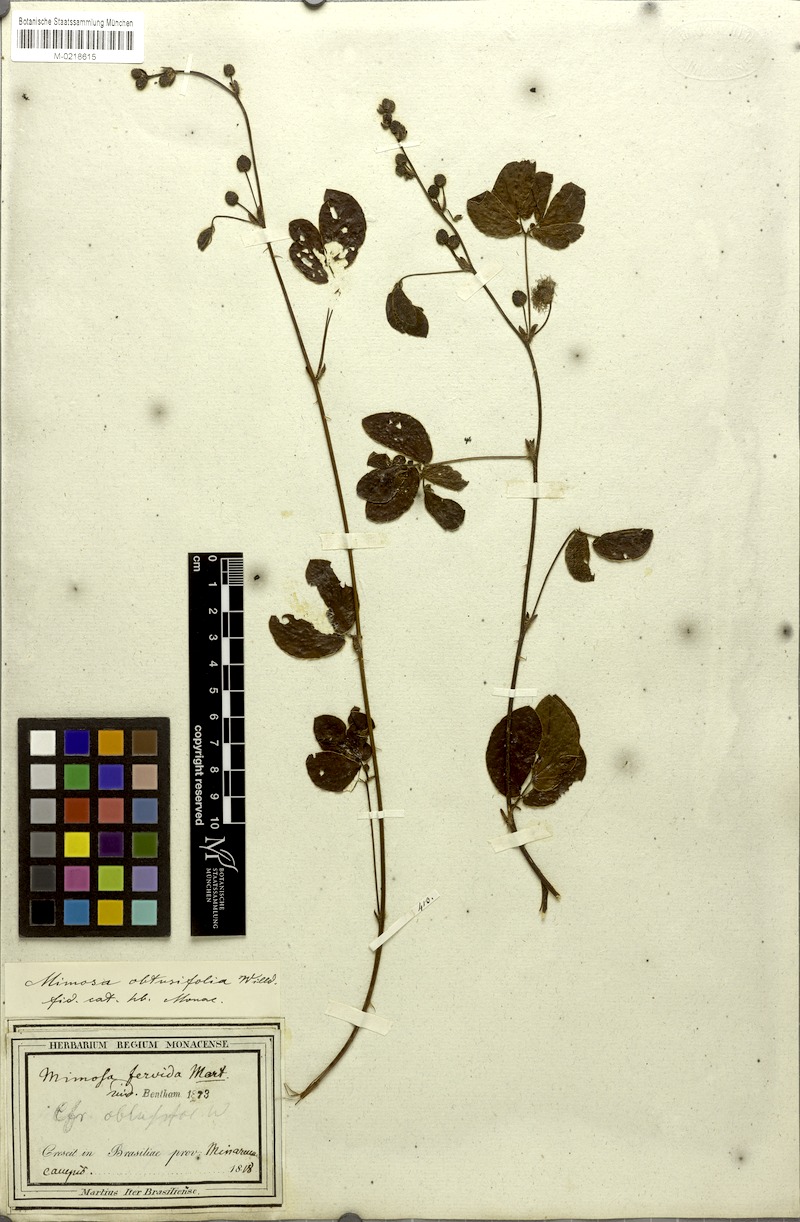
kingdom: Plantae
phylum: Tracheophyta
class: Magnoliopsida
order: Fabales
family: Fabaceae
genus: Mimosa
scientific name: Mimosa debilis
